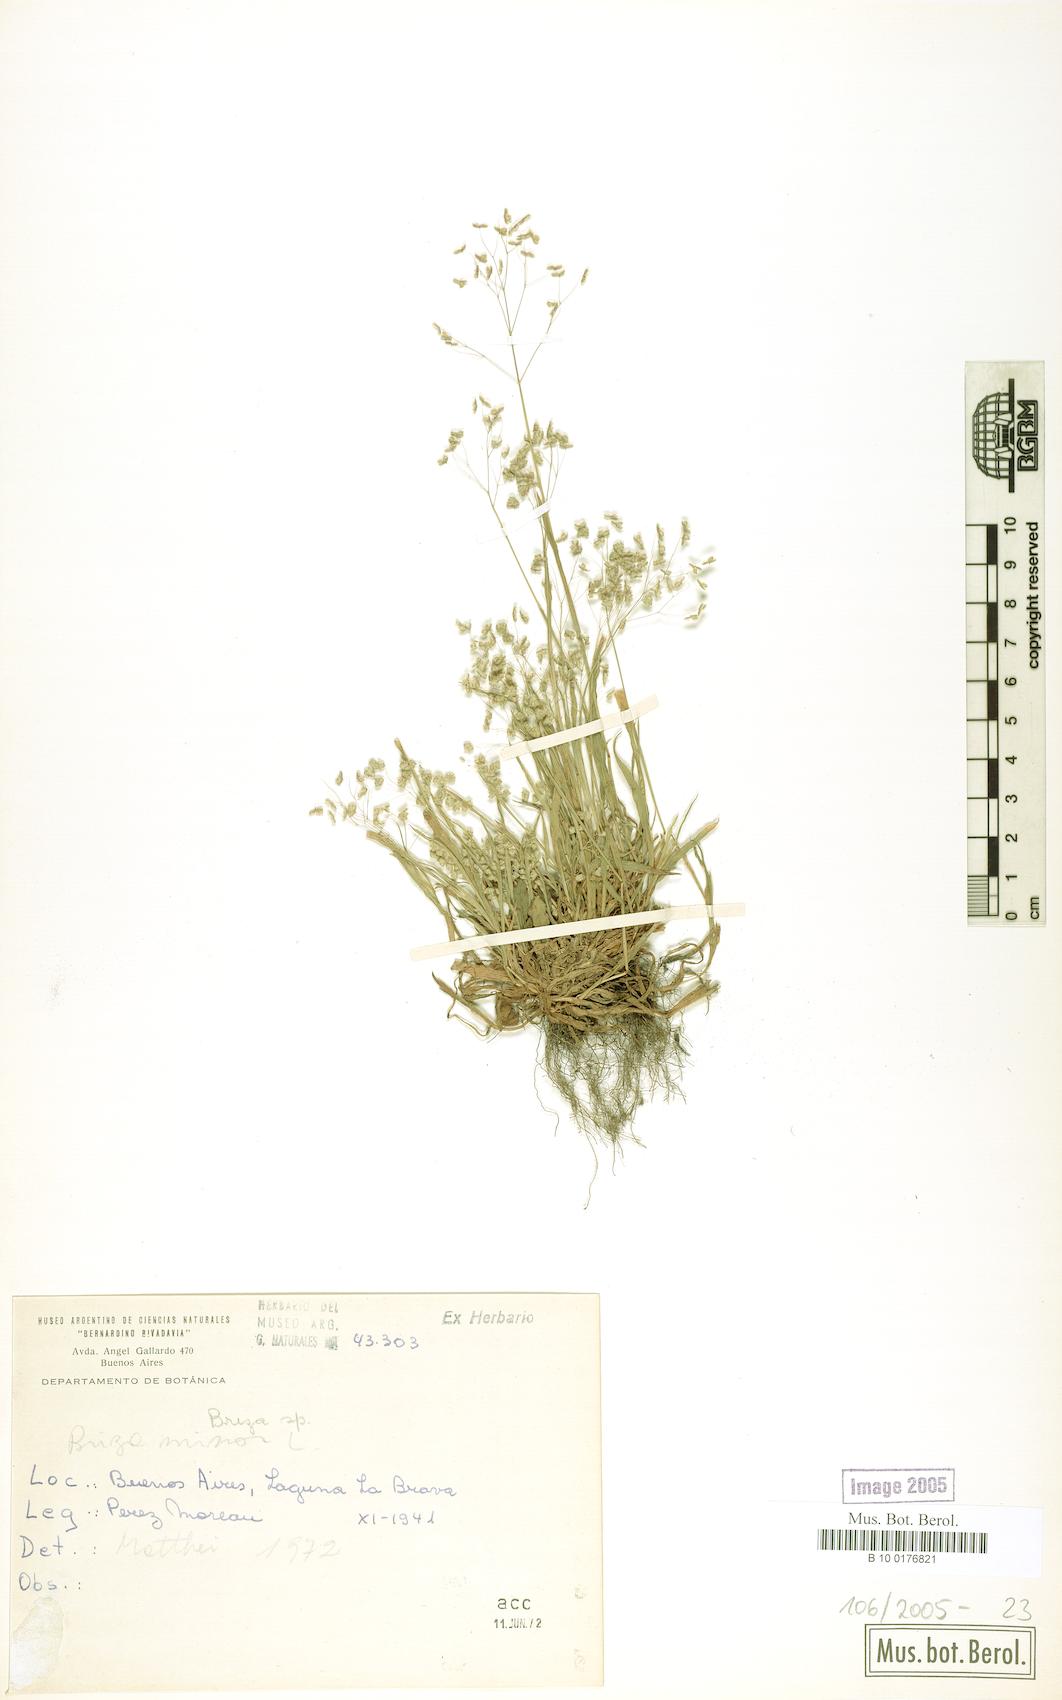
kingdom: Plantae
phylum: Tracheophyta
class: Liliopsida
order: Poales
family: Poaceae
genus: Briza
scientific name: Briza minor
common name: Lesser quaking-grass
